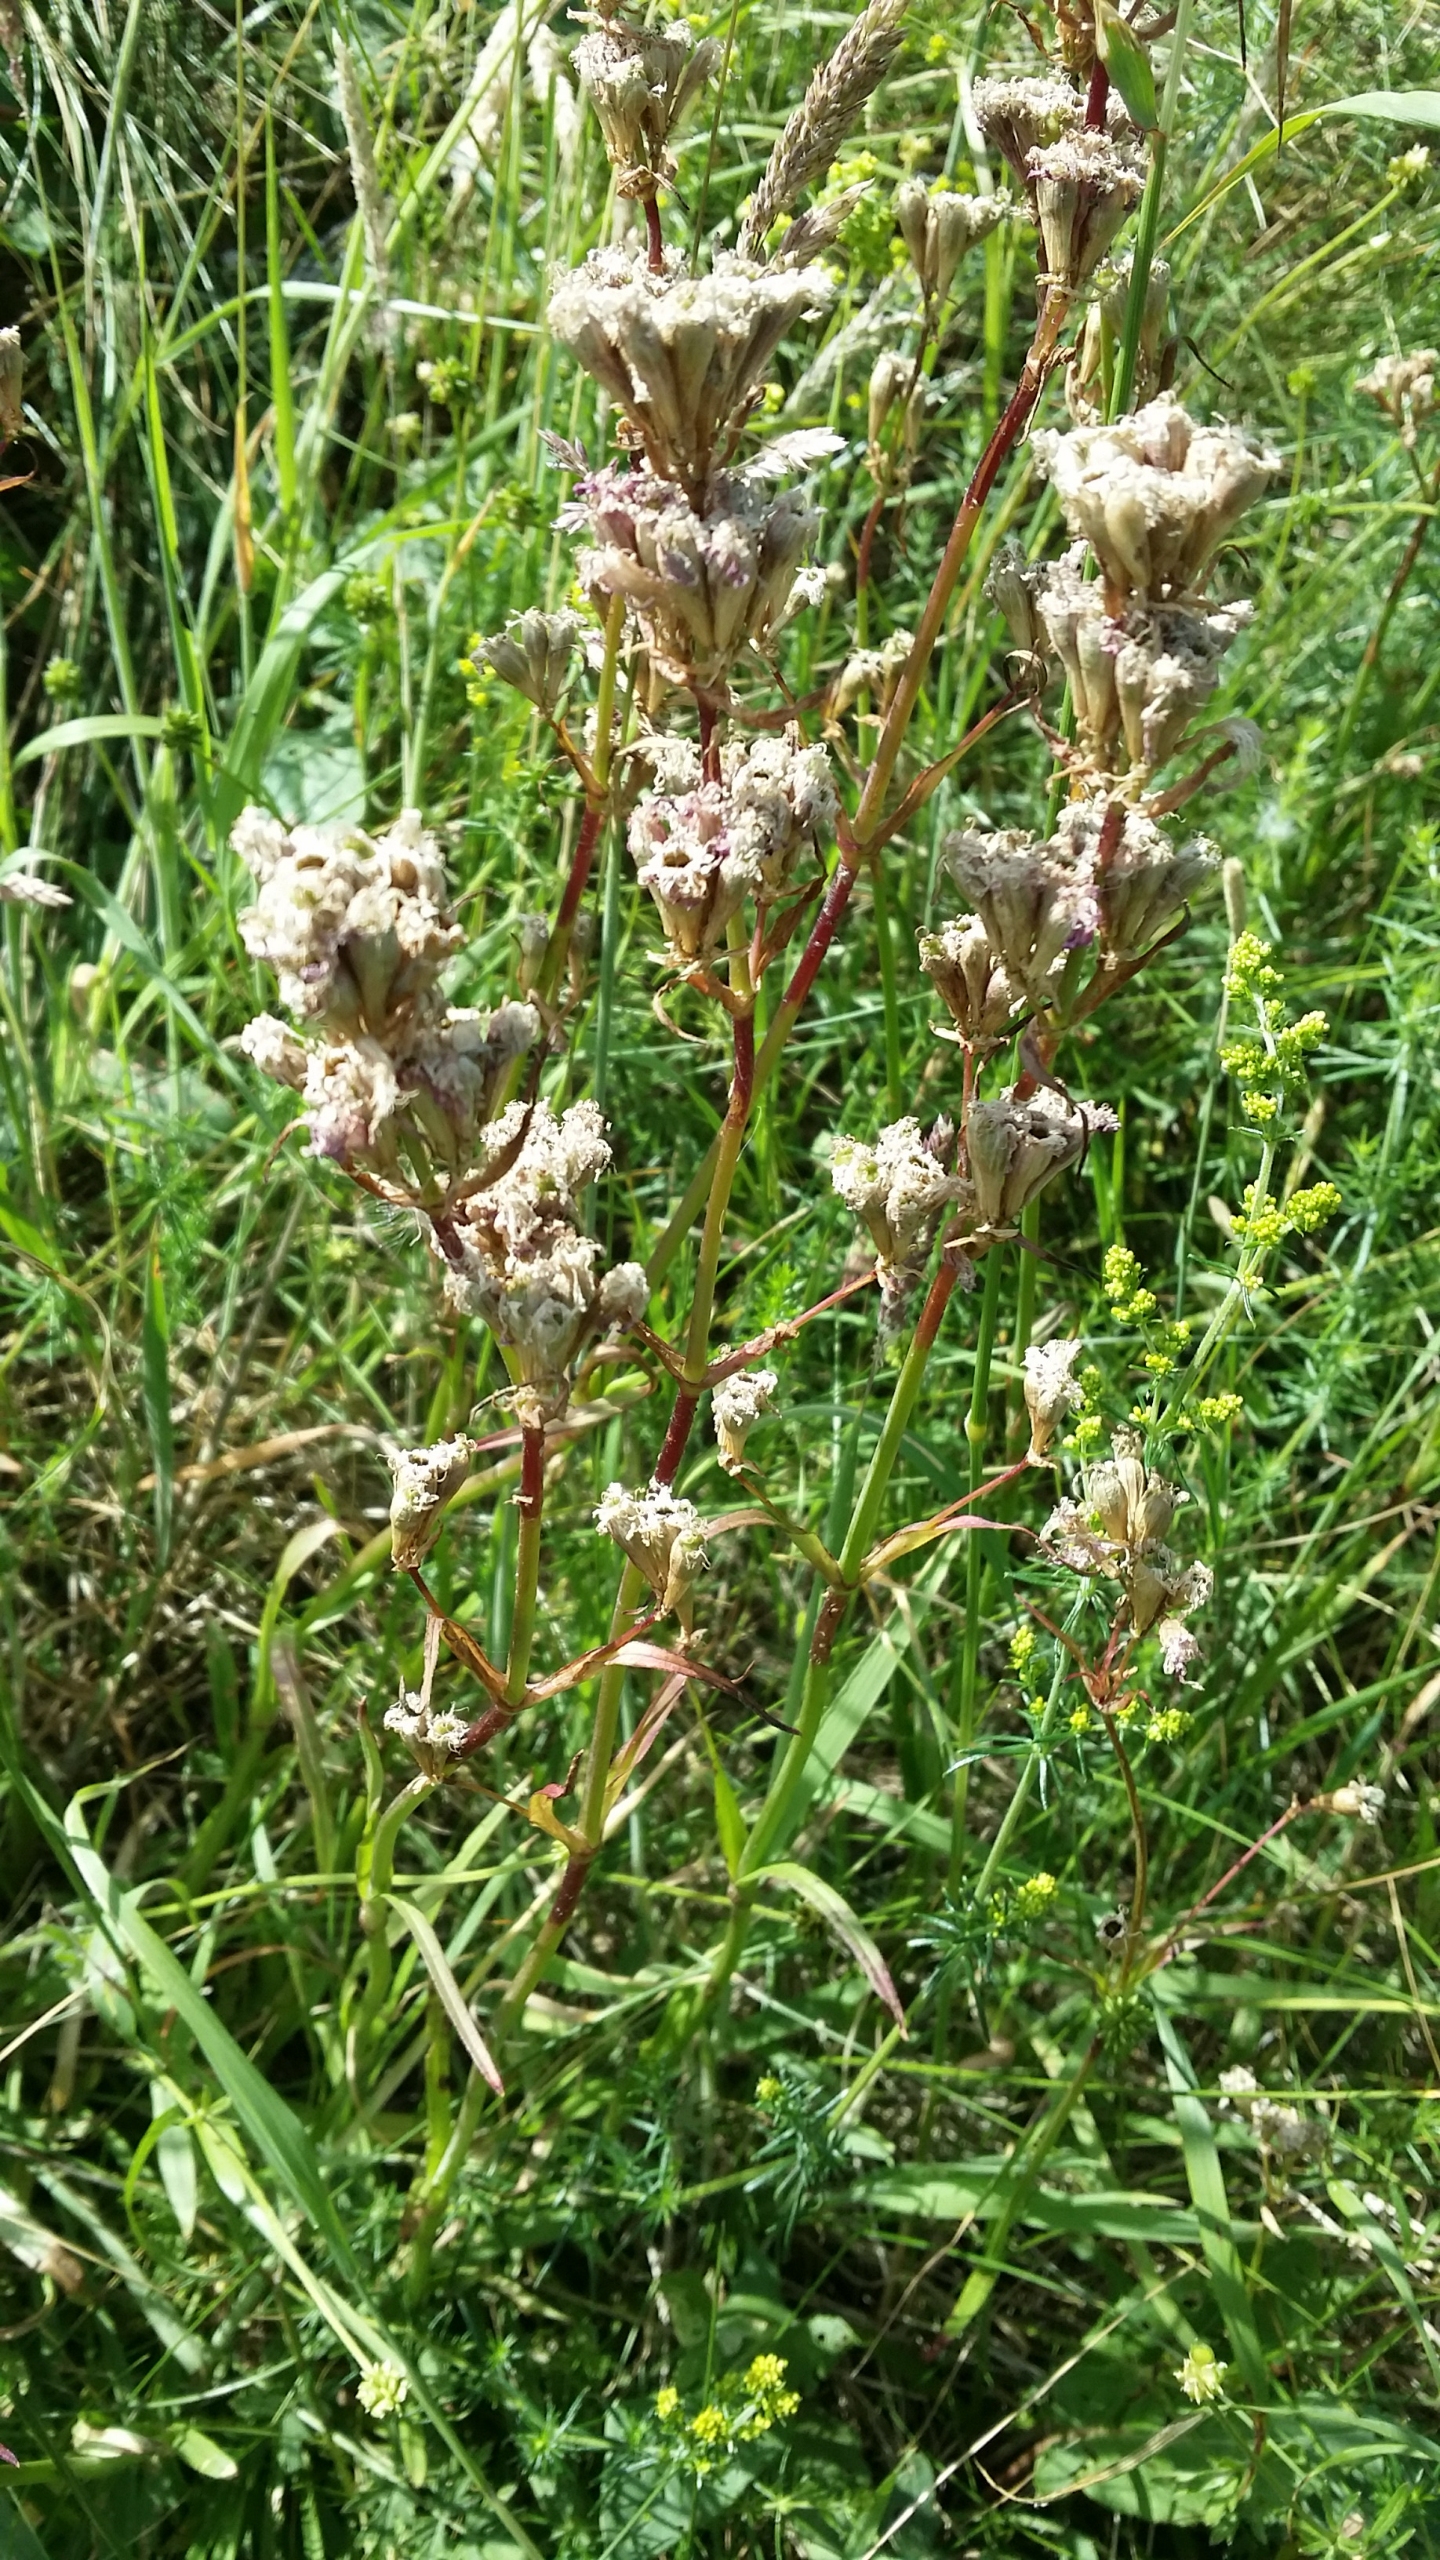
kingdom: Plantae
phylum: Tracheophyta
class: Magnoliopsida
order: Caryophyllales
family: Caryophyllaceae
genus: Viscaria
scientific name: Viscaria vulgaris
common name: Tjærenellike
